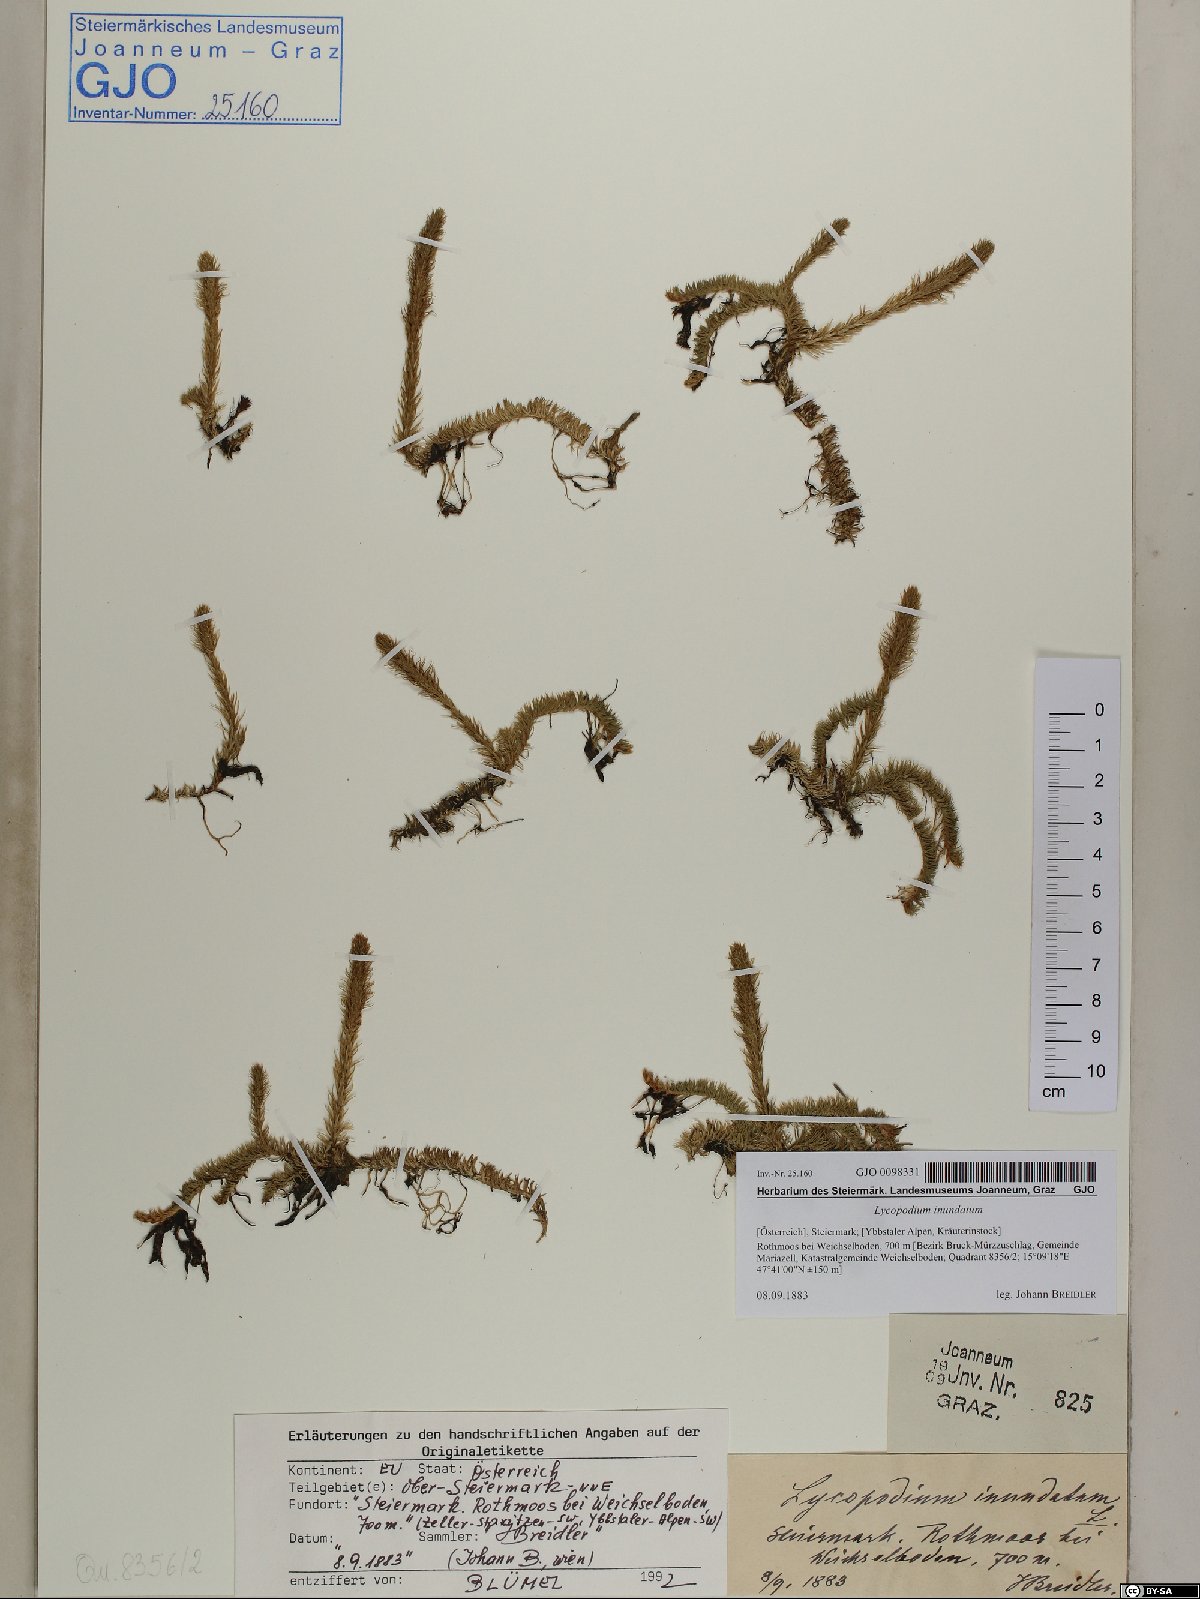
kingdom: Plantae
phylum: Tracheophyta
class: Lycopodiopsida
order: Lycopodiales
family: Lycopodiaceae
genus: Lycopodiella
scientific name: Lycopodiella inundata
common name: Marsh clubmoss
